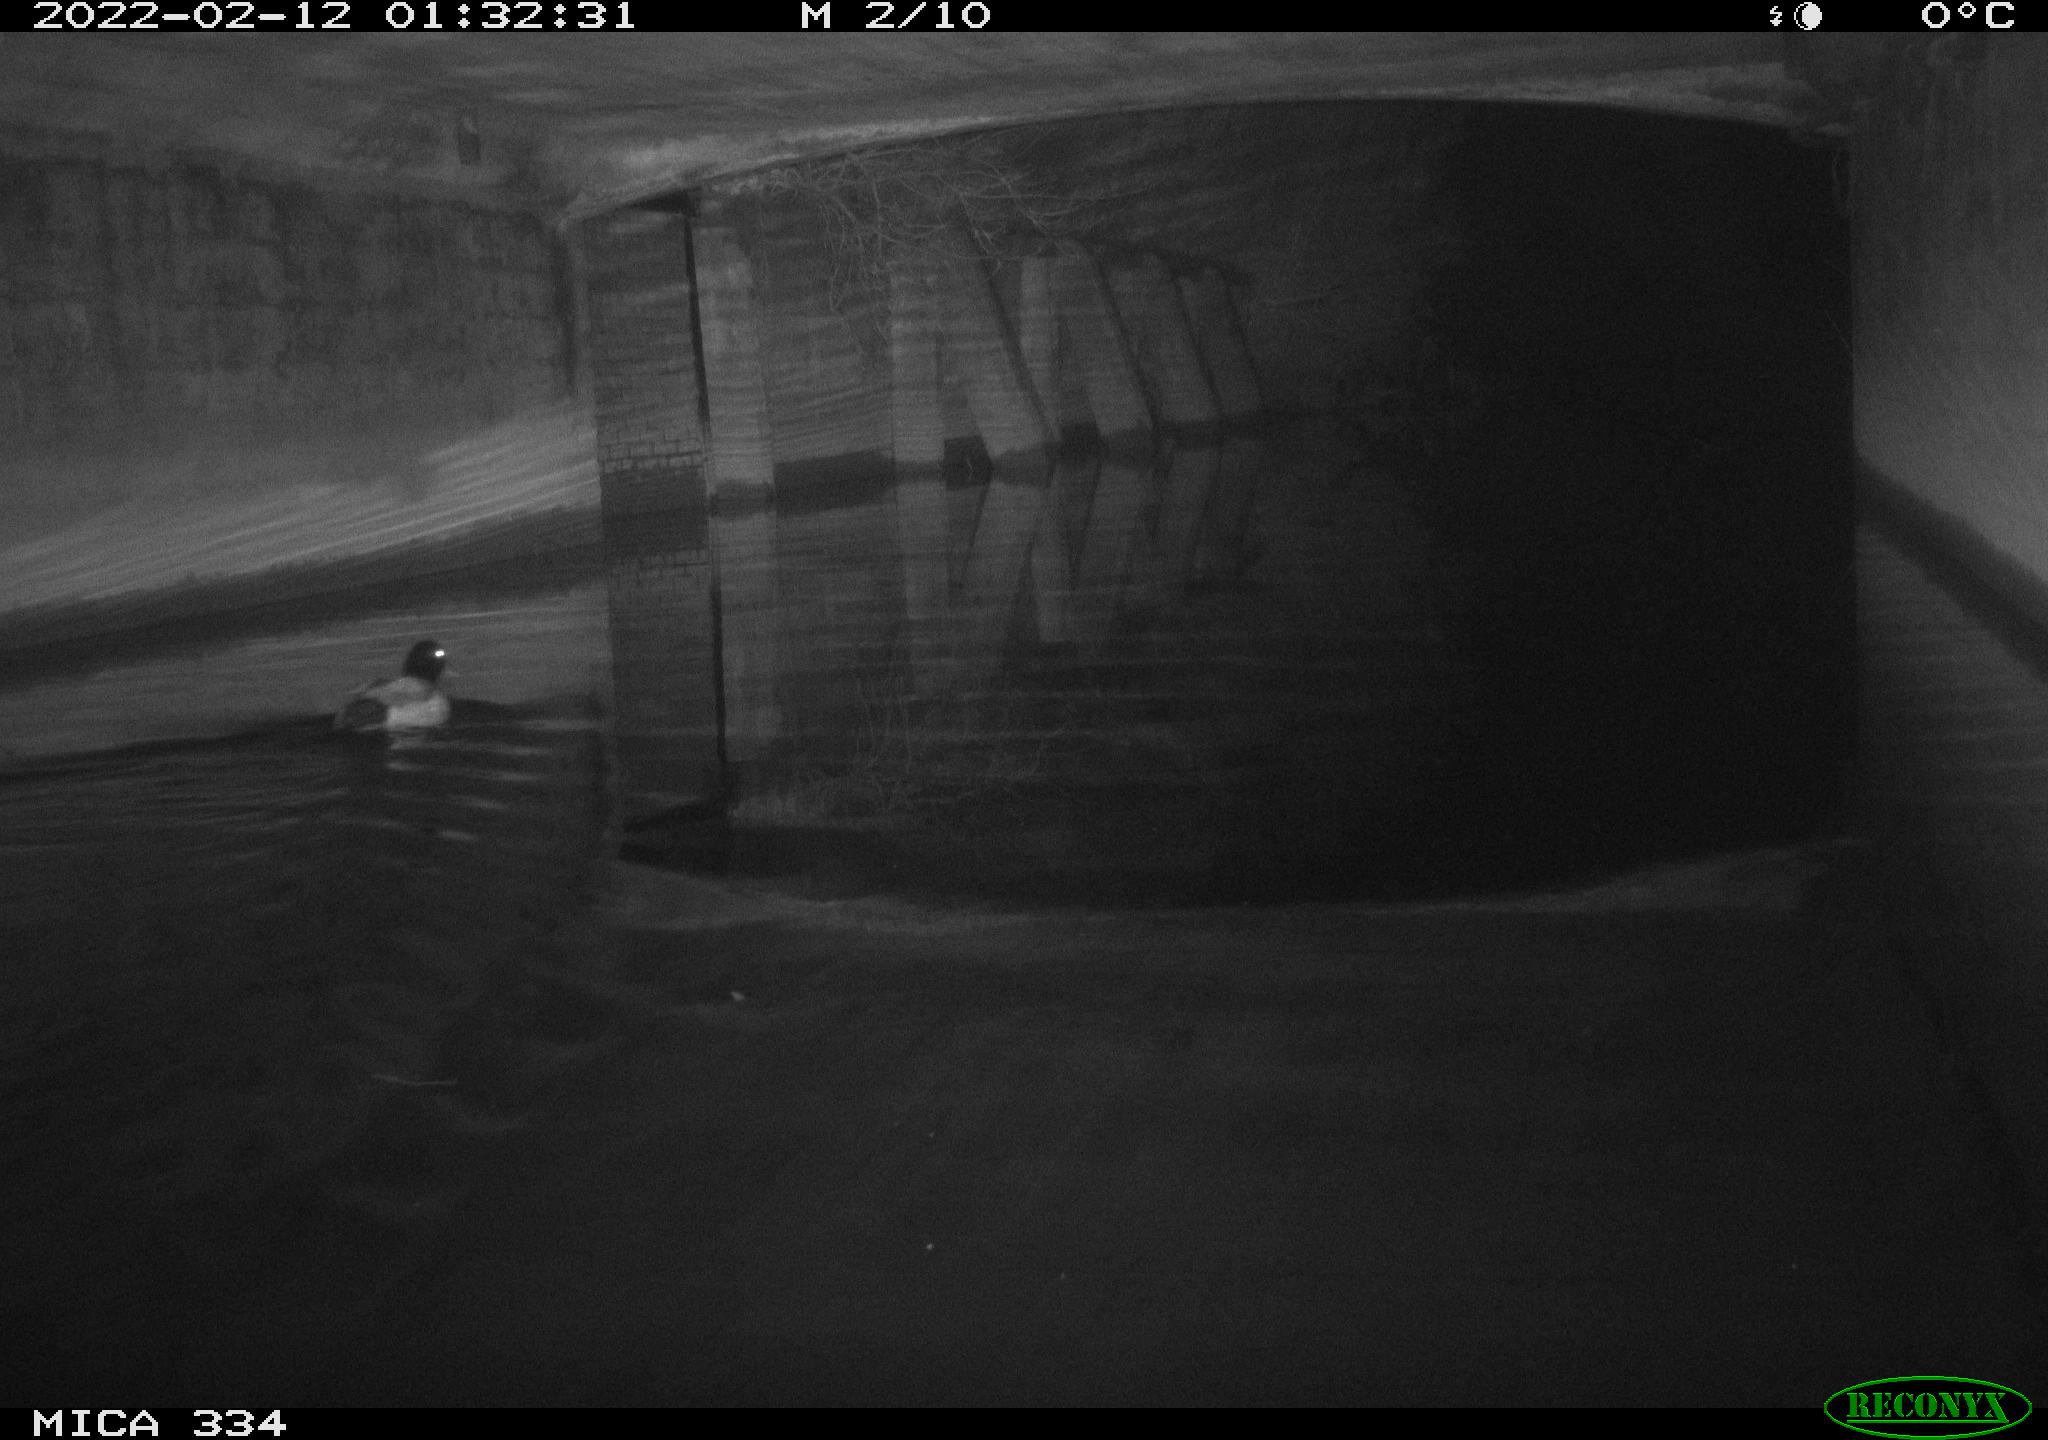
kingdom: Animalia
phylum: Chordata
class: Aves
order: Anseriformes
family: Anatidae
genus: Anas
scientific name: Anas platyrhynchos
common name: Mallard
